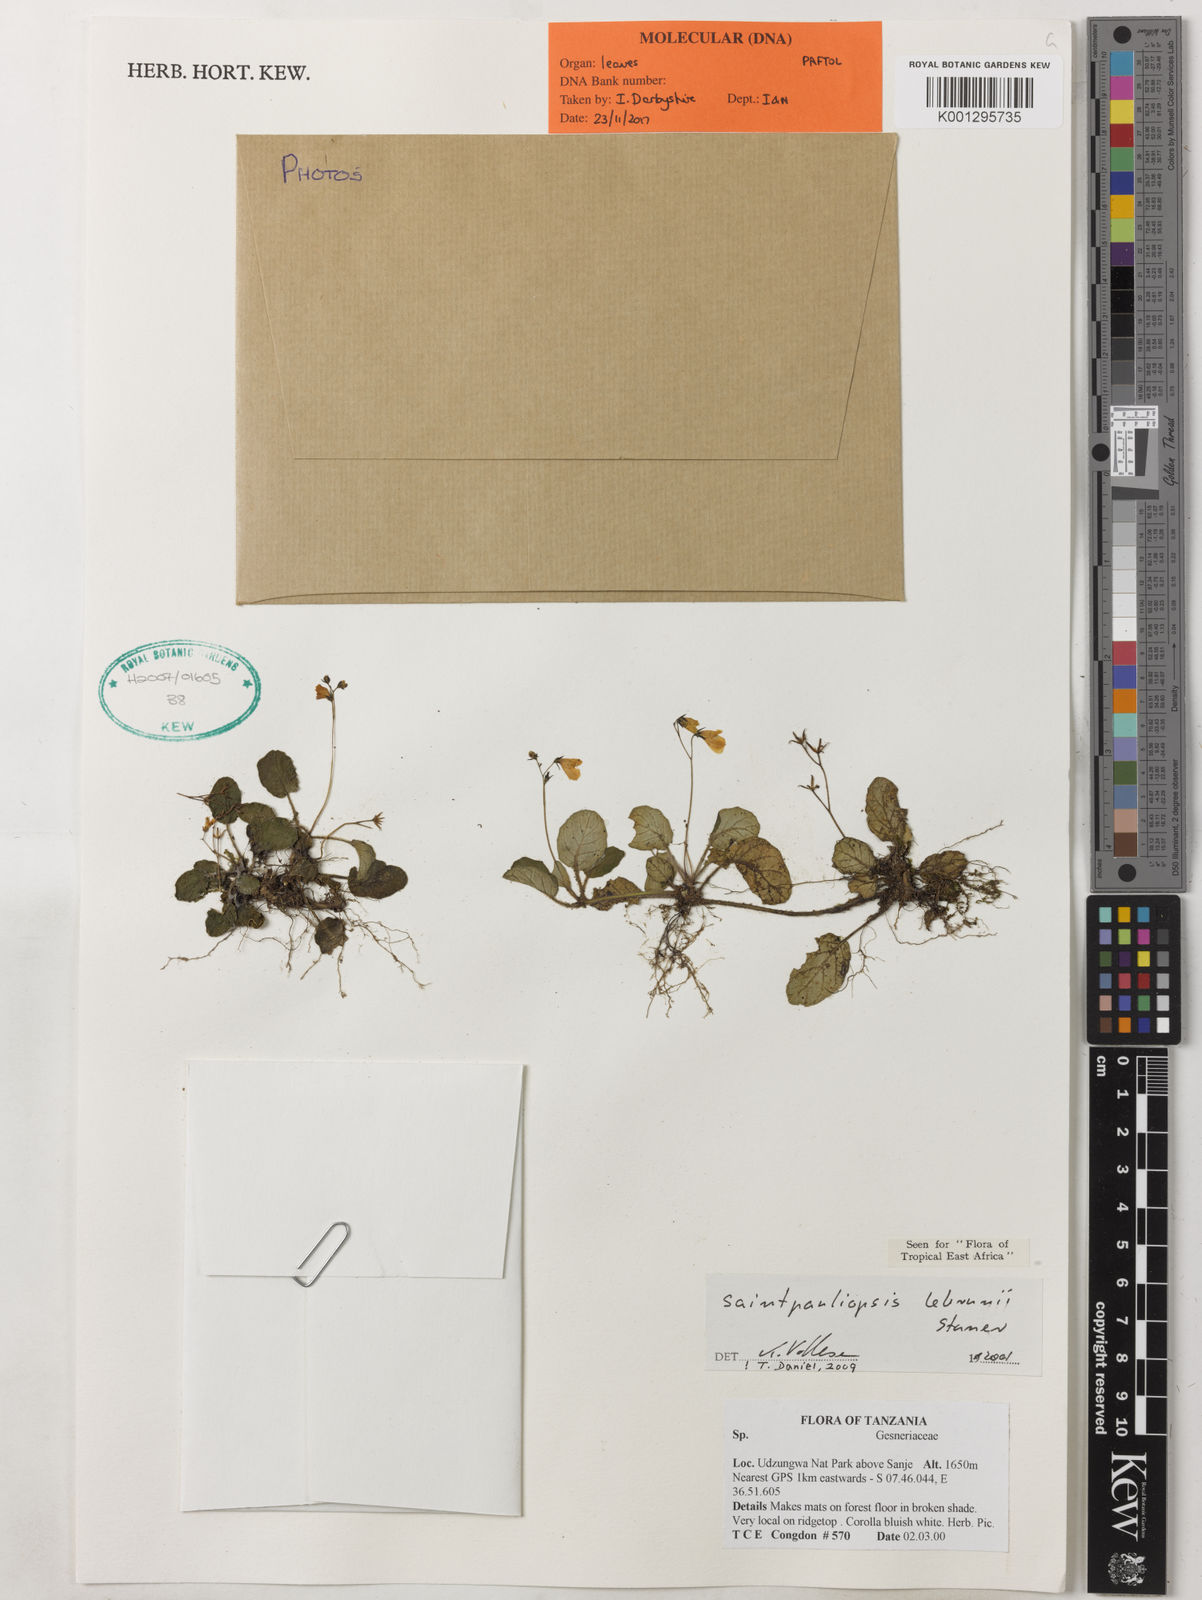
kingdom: Plantae
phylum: Tracheophyta
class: Magnoliopsida
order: Lamiales
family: Acanthaceae
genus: Saintpauliopsis
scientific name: Saintpauliopsis lebrunii
